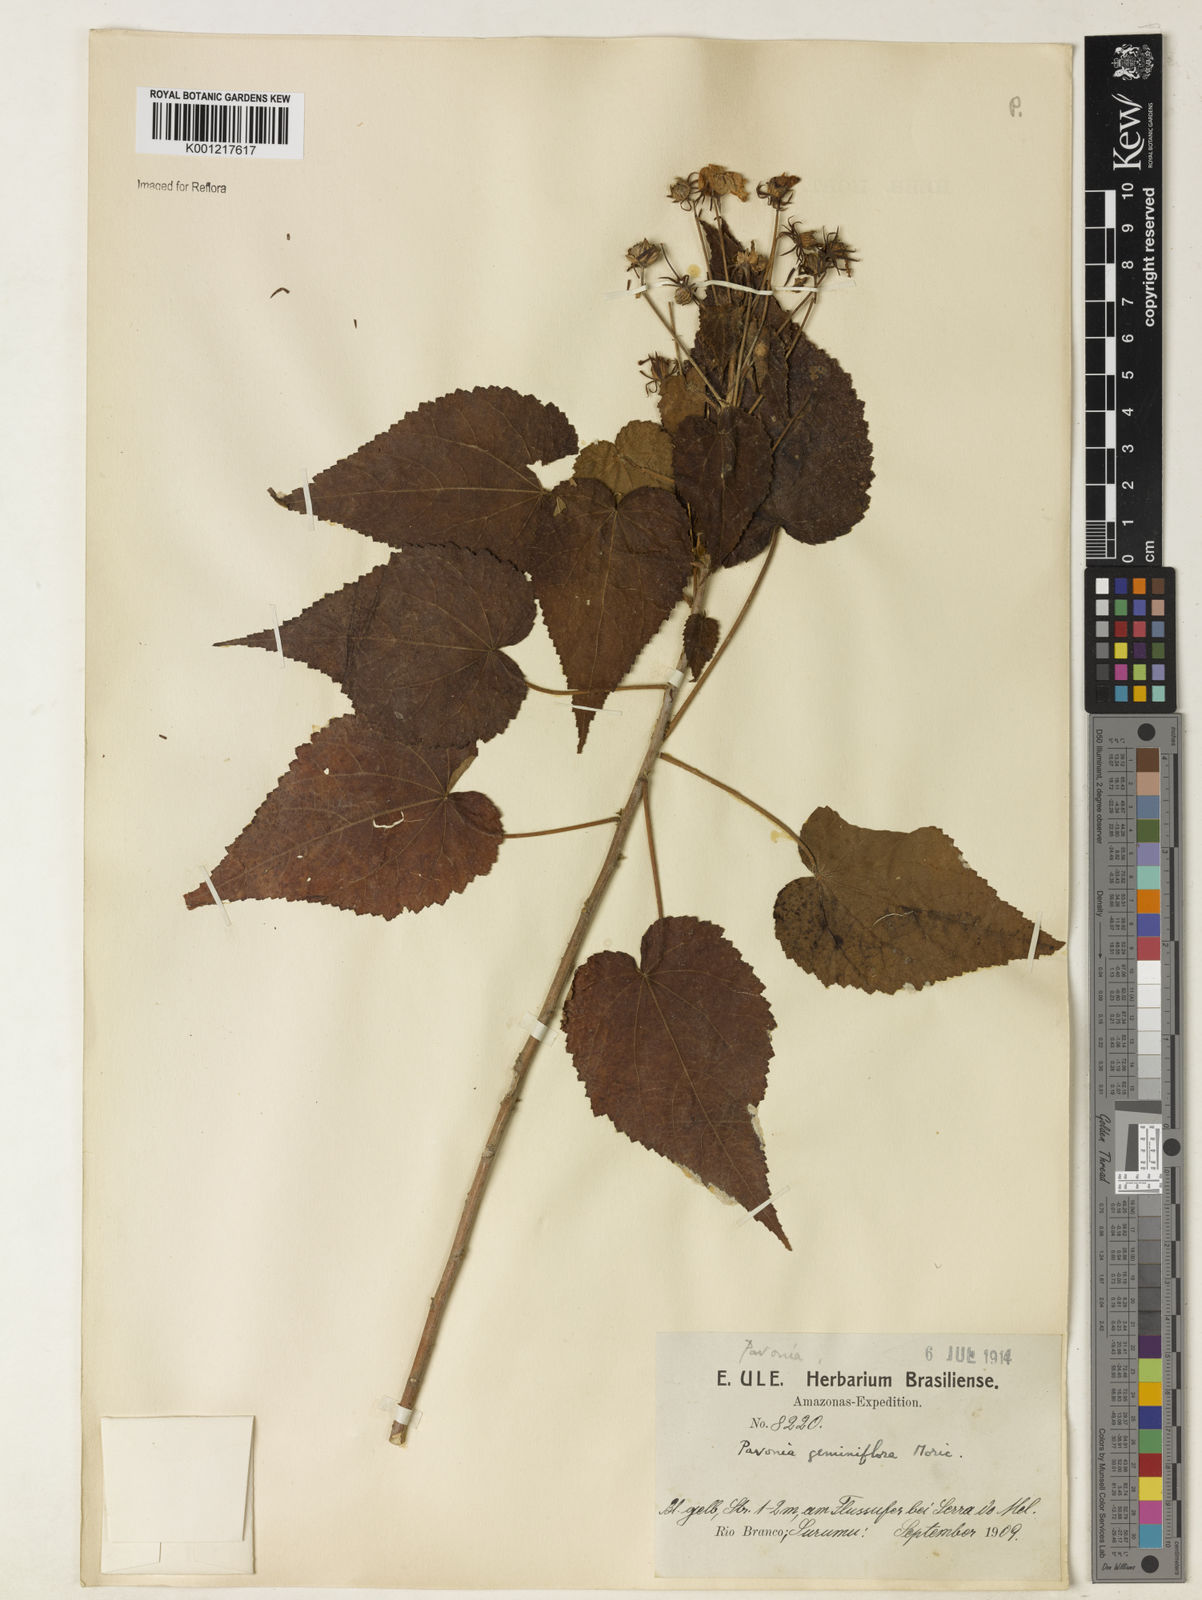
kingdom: Plantae
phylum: Tracheophyta
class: Magnoliopsida
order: Malvales
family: Malvaceae
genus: Pavonia
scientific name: Pavonia geminiflora
